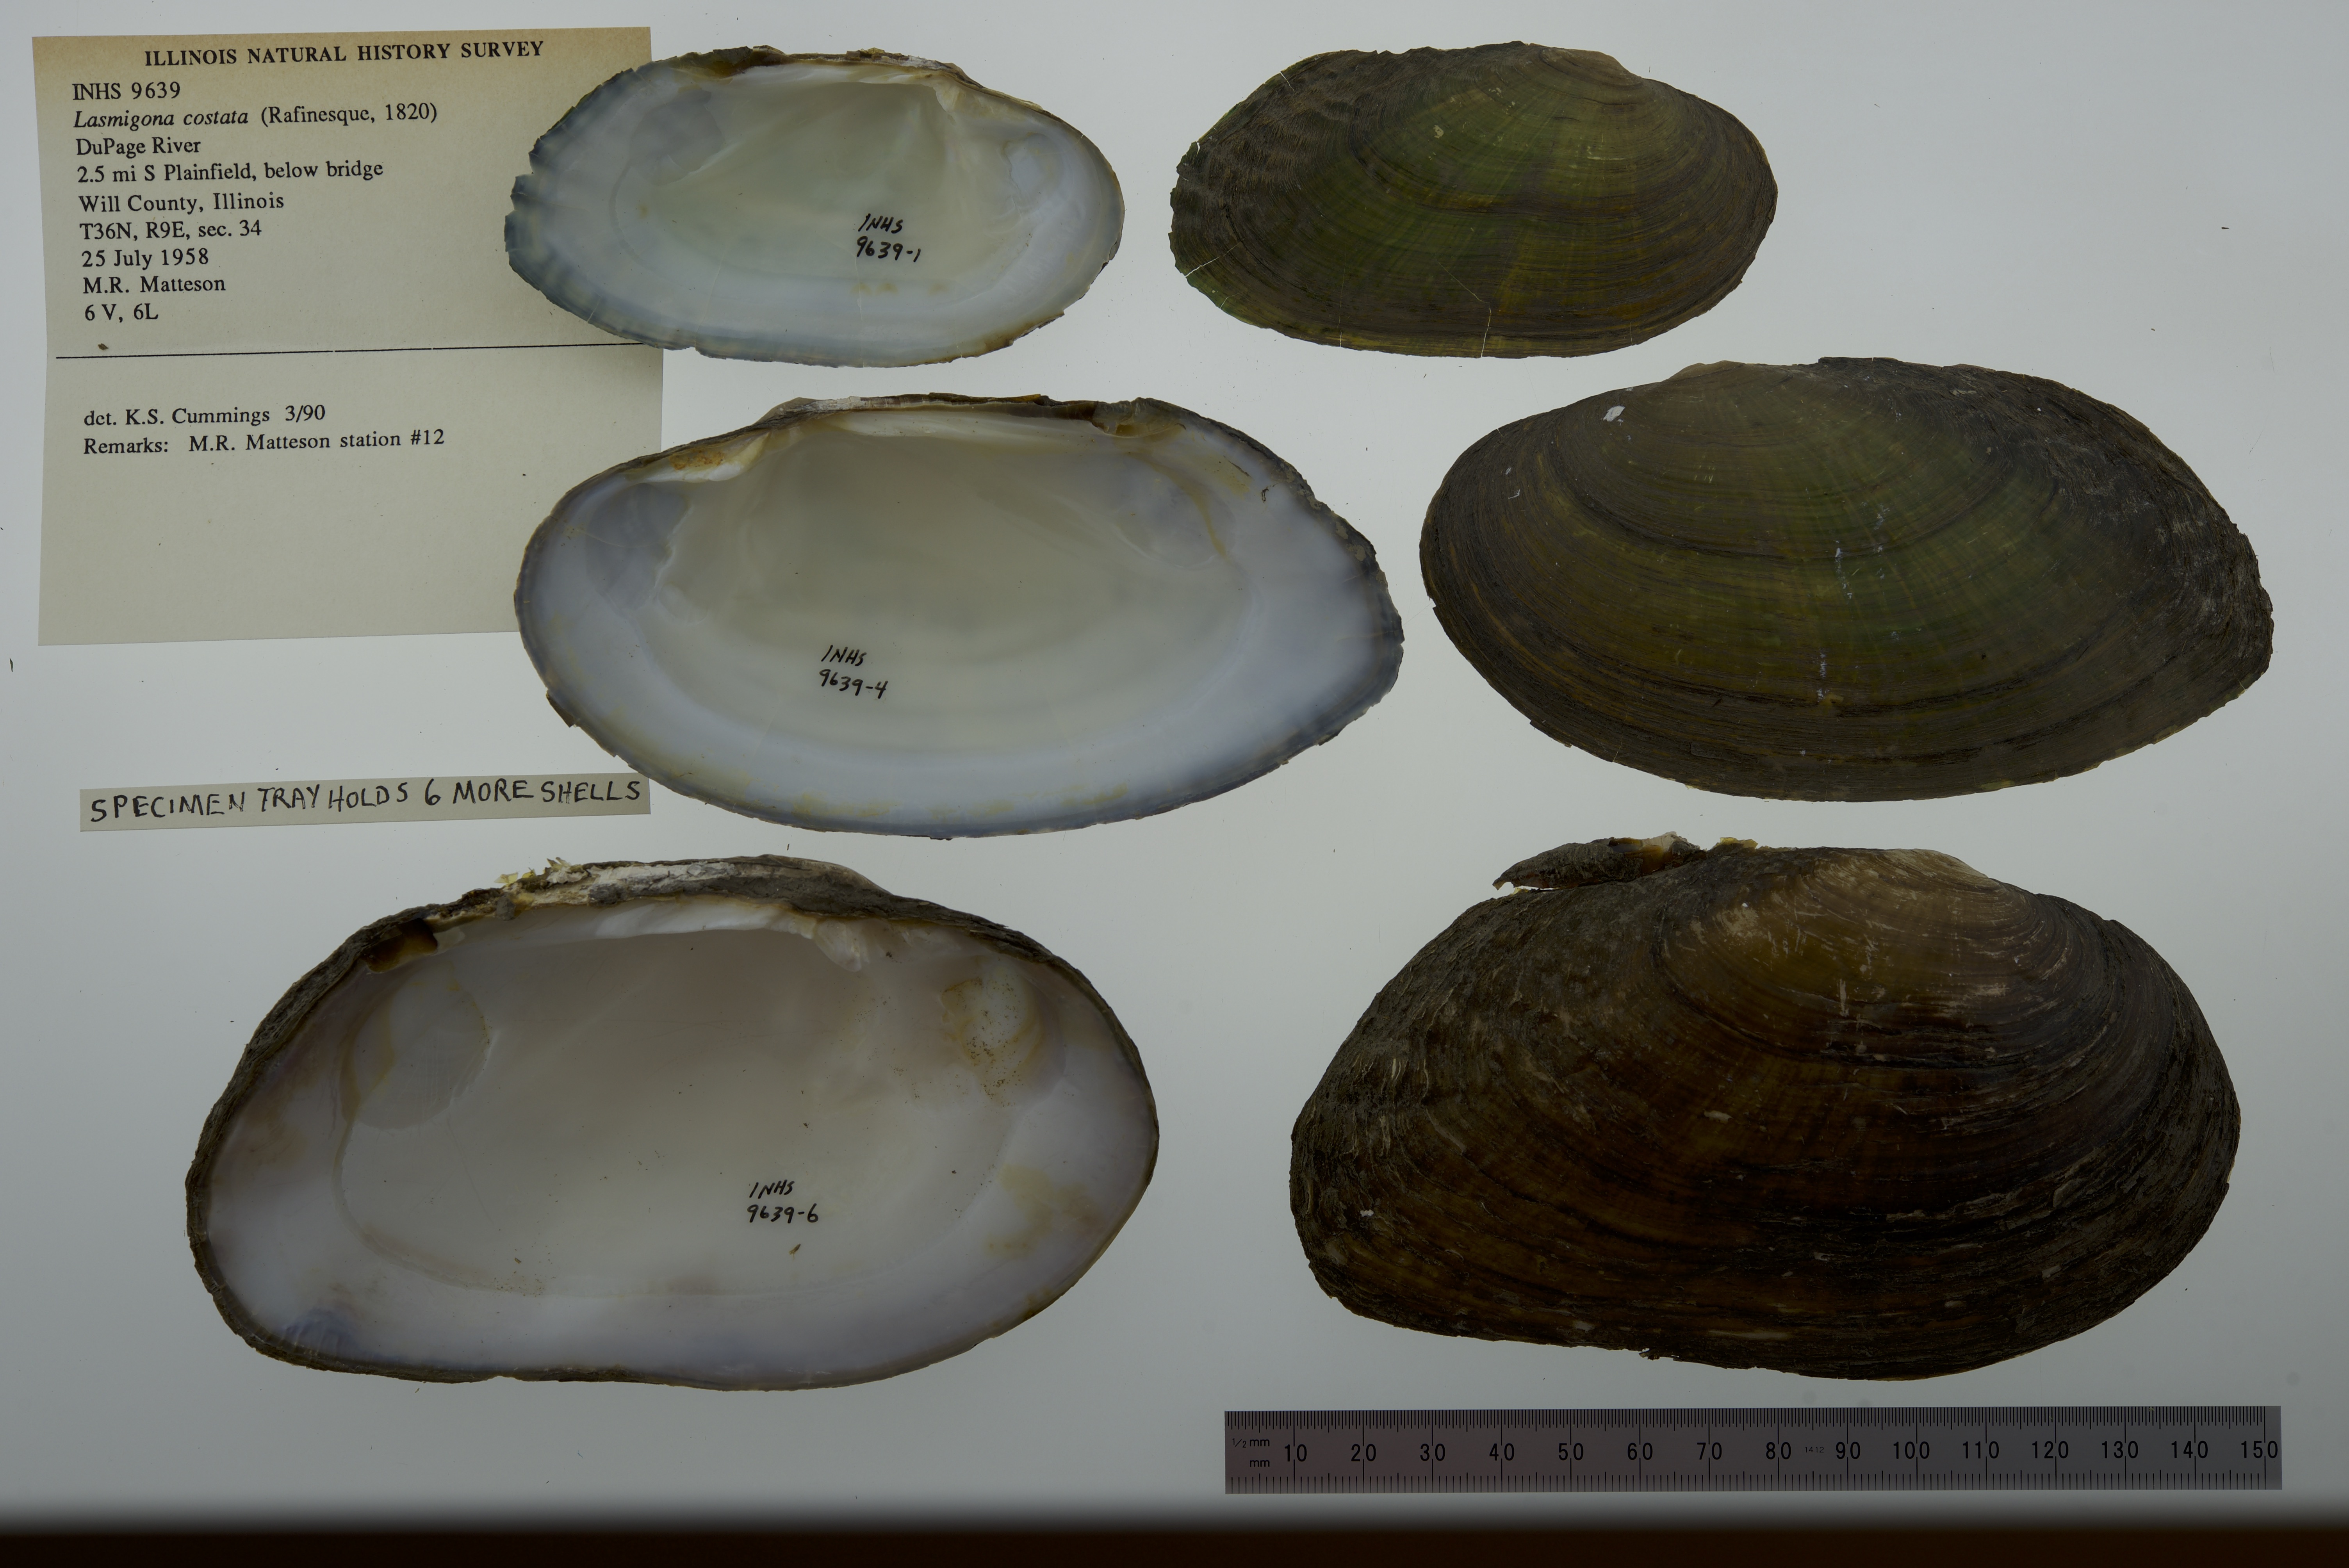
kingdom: Animalia
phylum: Mollusca
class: Bivalvia
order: Unionida
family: Unionidae
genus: Lasmigona
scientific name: Lasmigona costata
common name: Flutedshell
